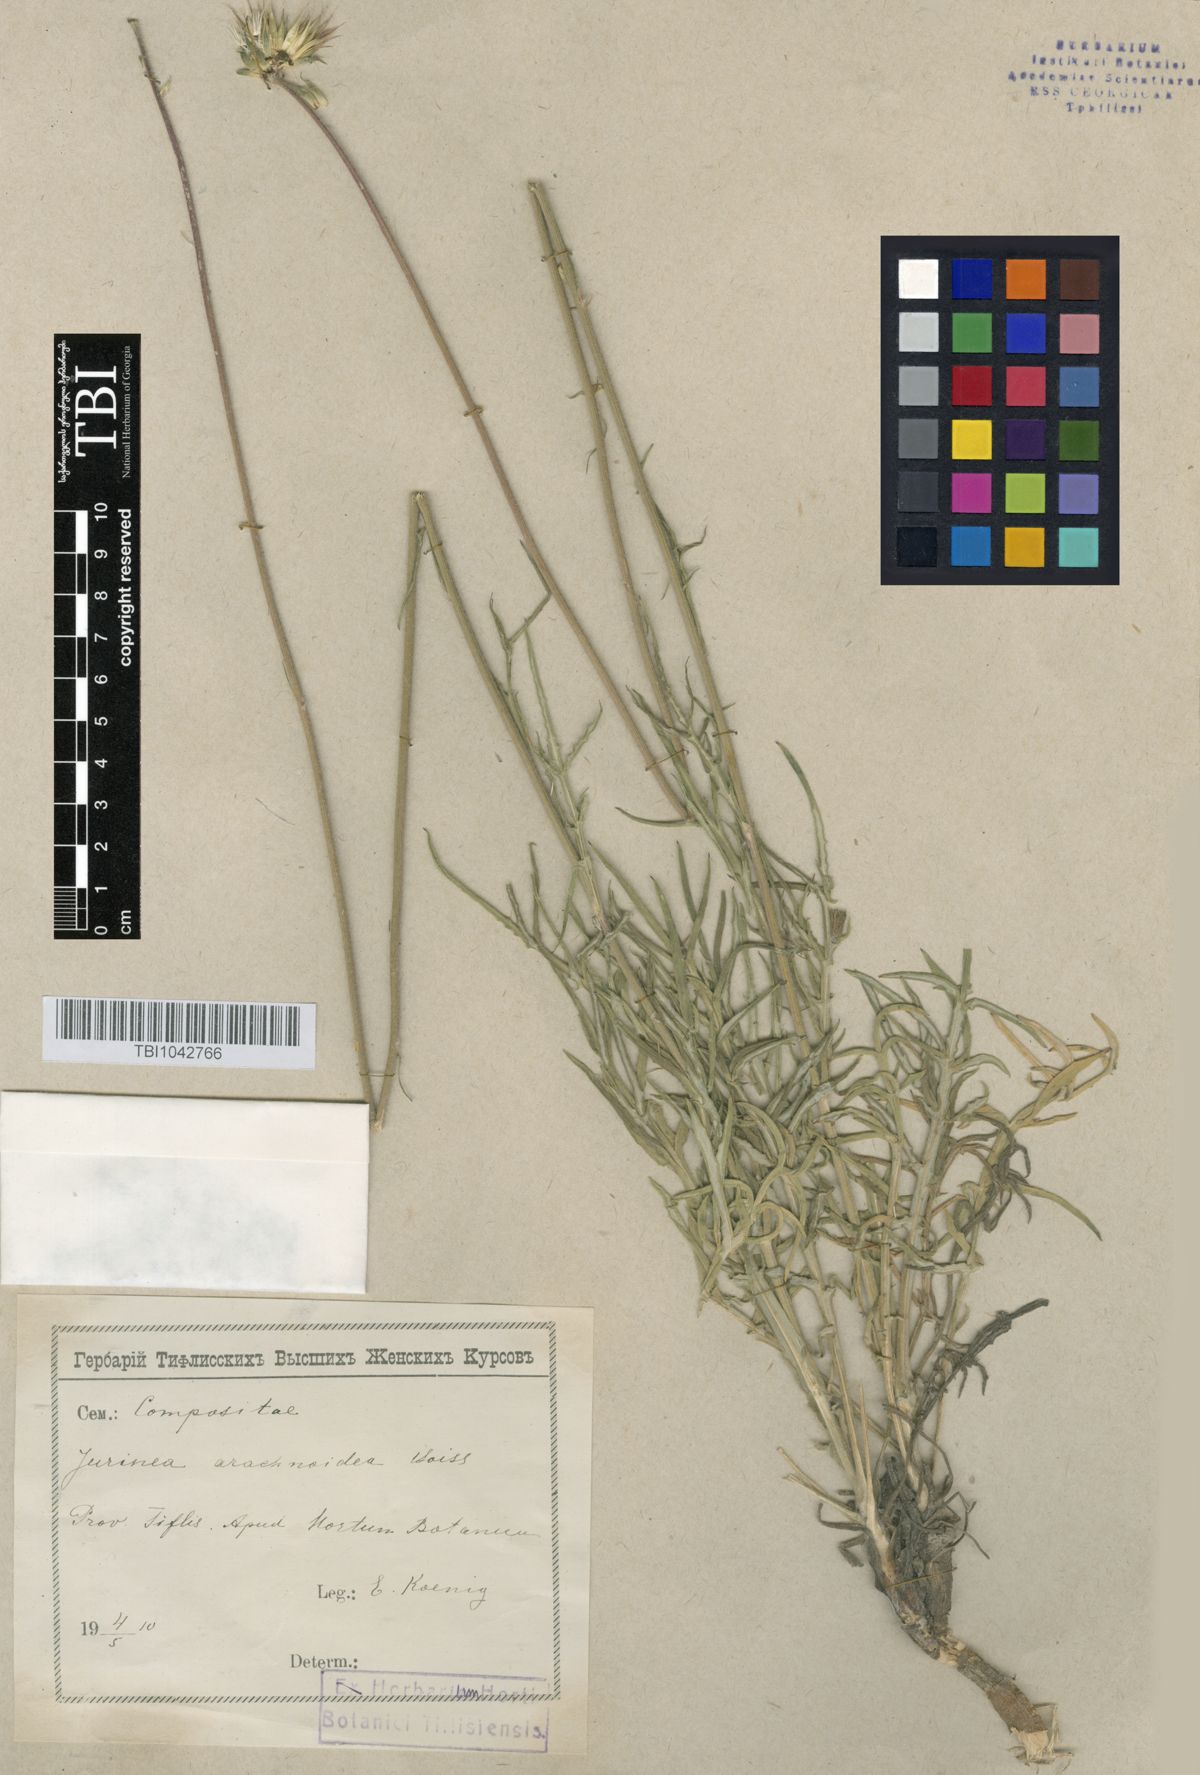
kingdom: Plantae
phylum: Tracheophyta
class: Magnoliopsida
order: Asterales
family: Asteraceae
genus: Jurinea
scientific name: Jurinea blanda
